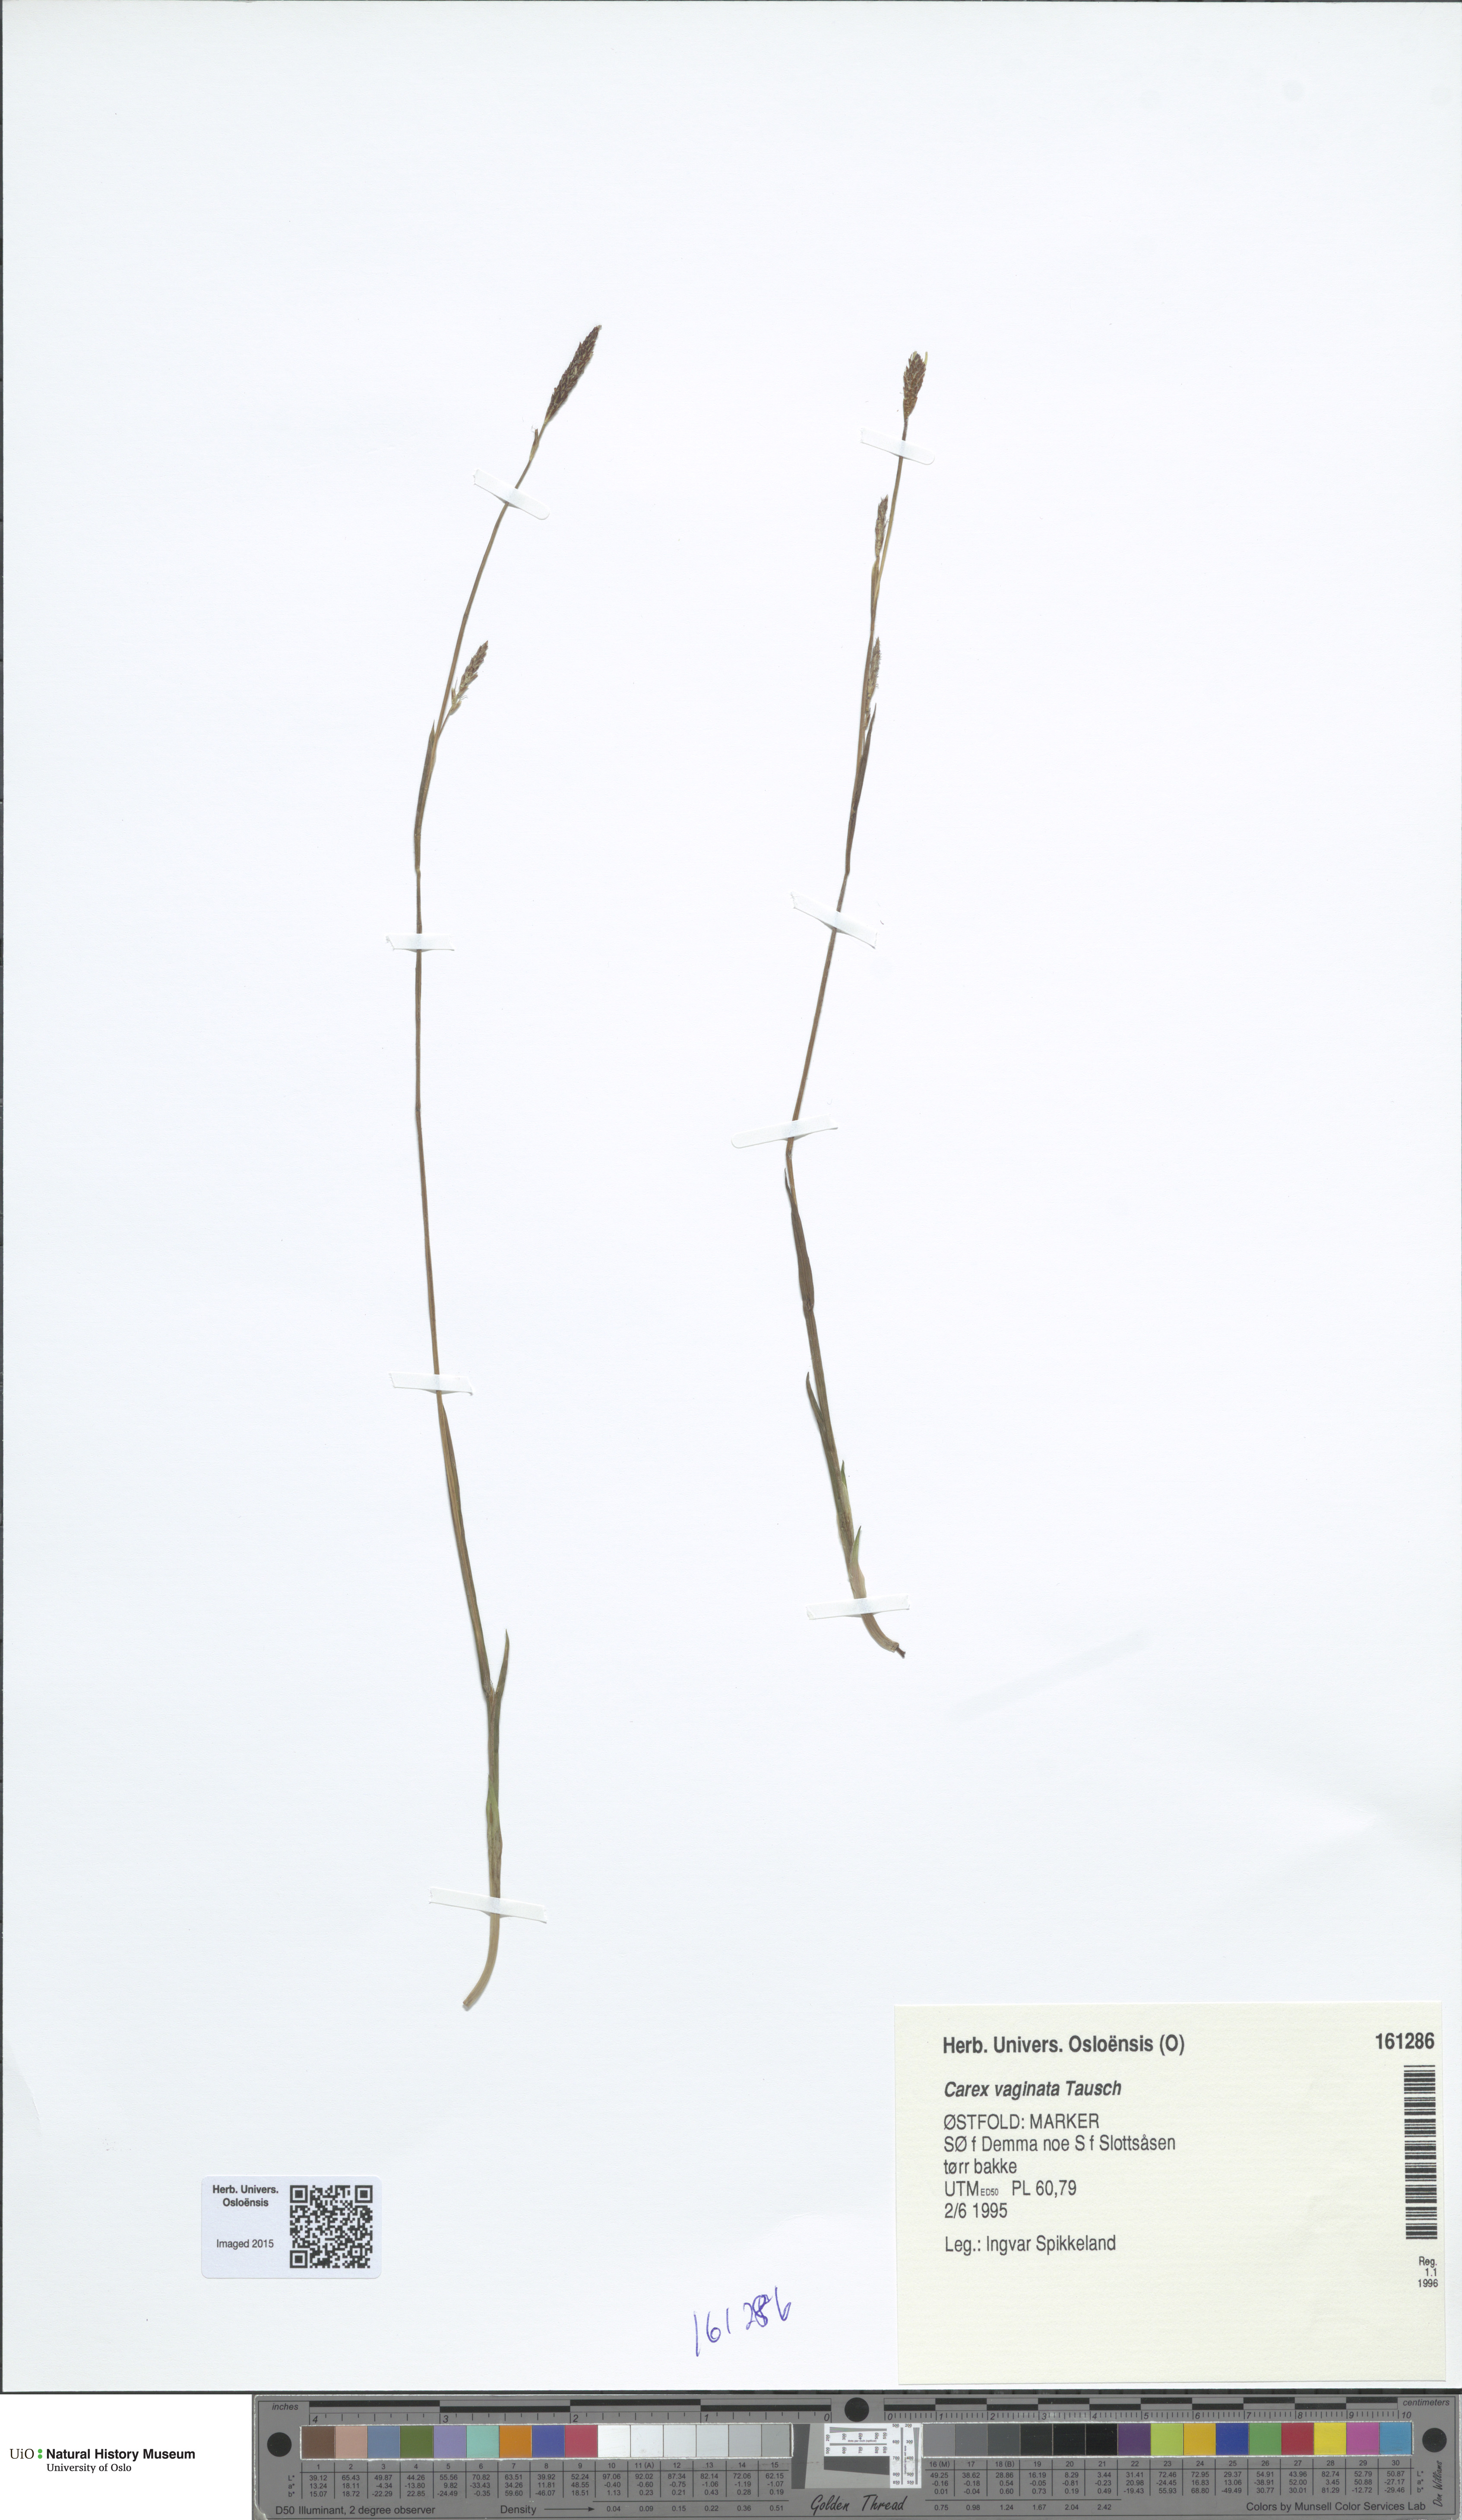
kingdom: Plantae
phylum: Tracheophyta
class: Liliopsida
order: Poales
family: Cyperaceae
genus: Carex
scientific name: Carex vaginata
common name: Sheathed sedge
